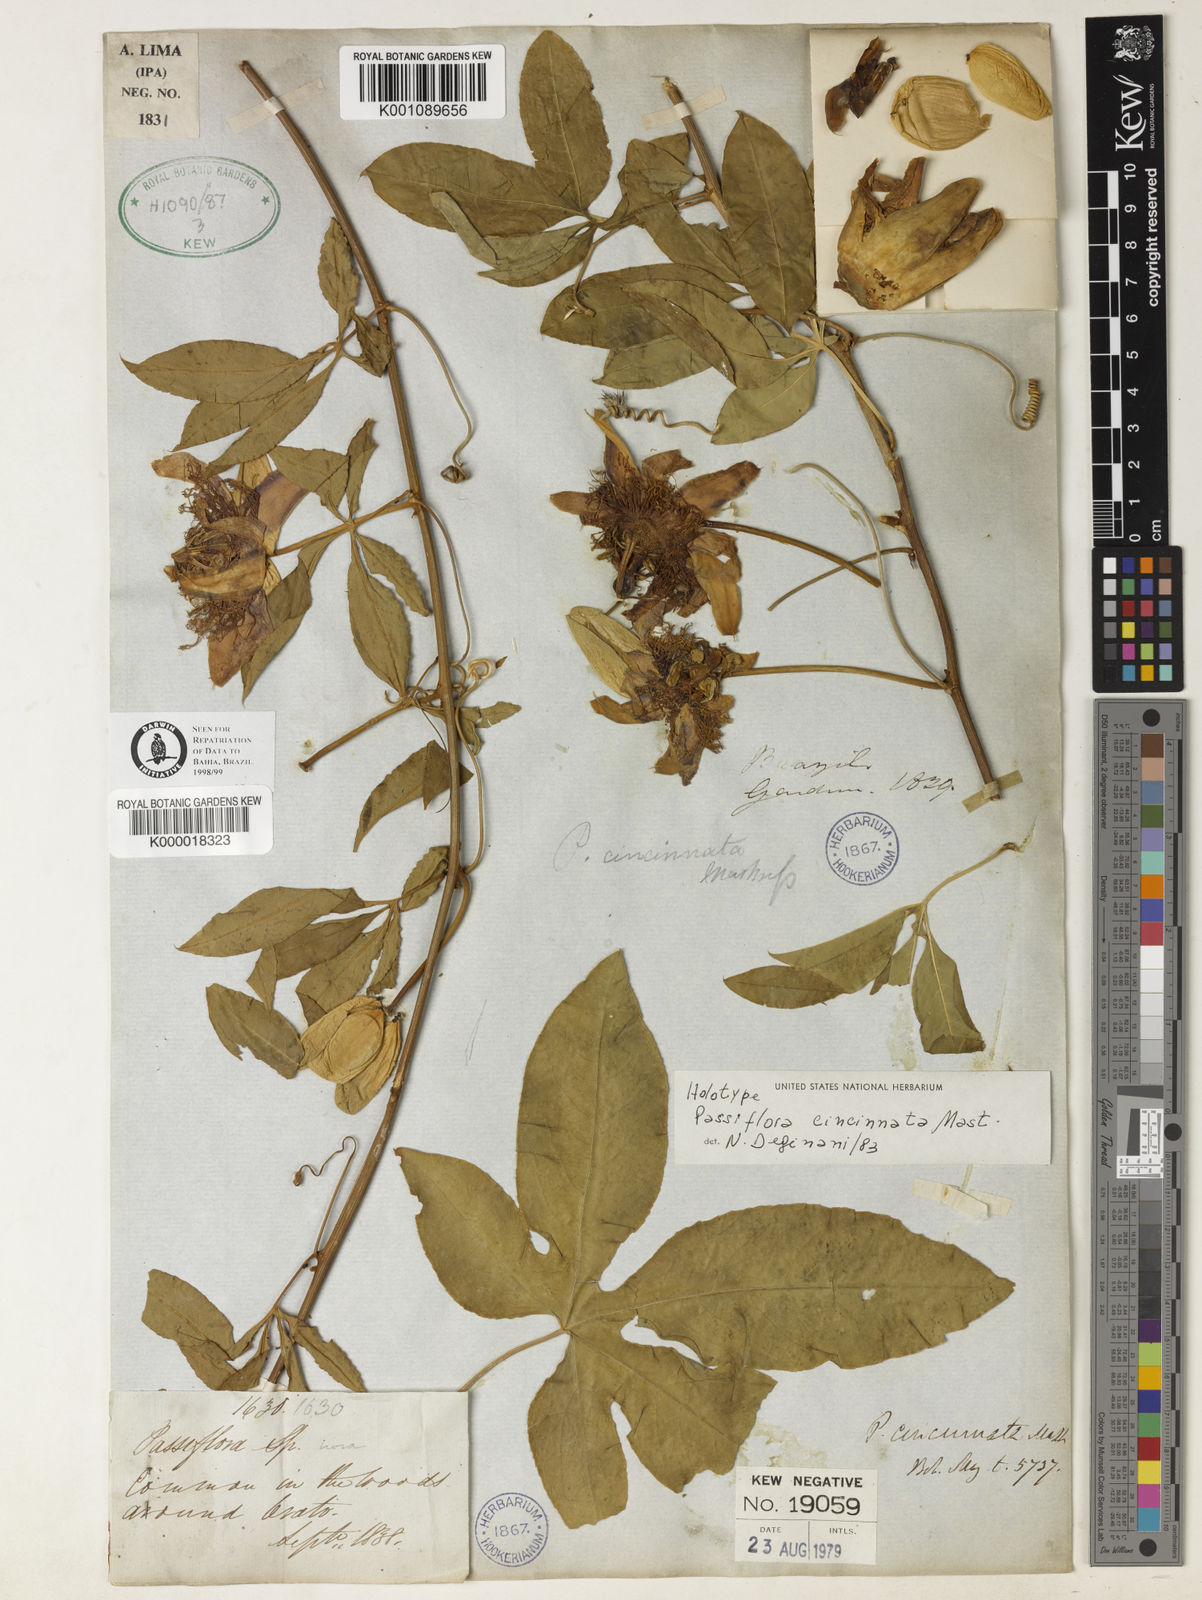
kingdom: Plantae
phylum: Tracheophyta
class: Magnoliopsida
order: Malpighiales
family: Passifloraceae
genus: Passiflora
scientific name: Passiflora cincinnata
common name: Crato passionvine
